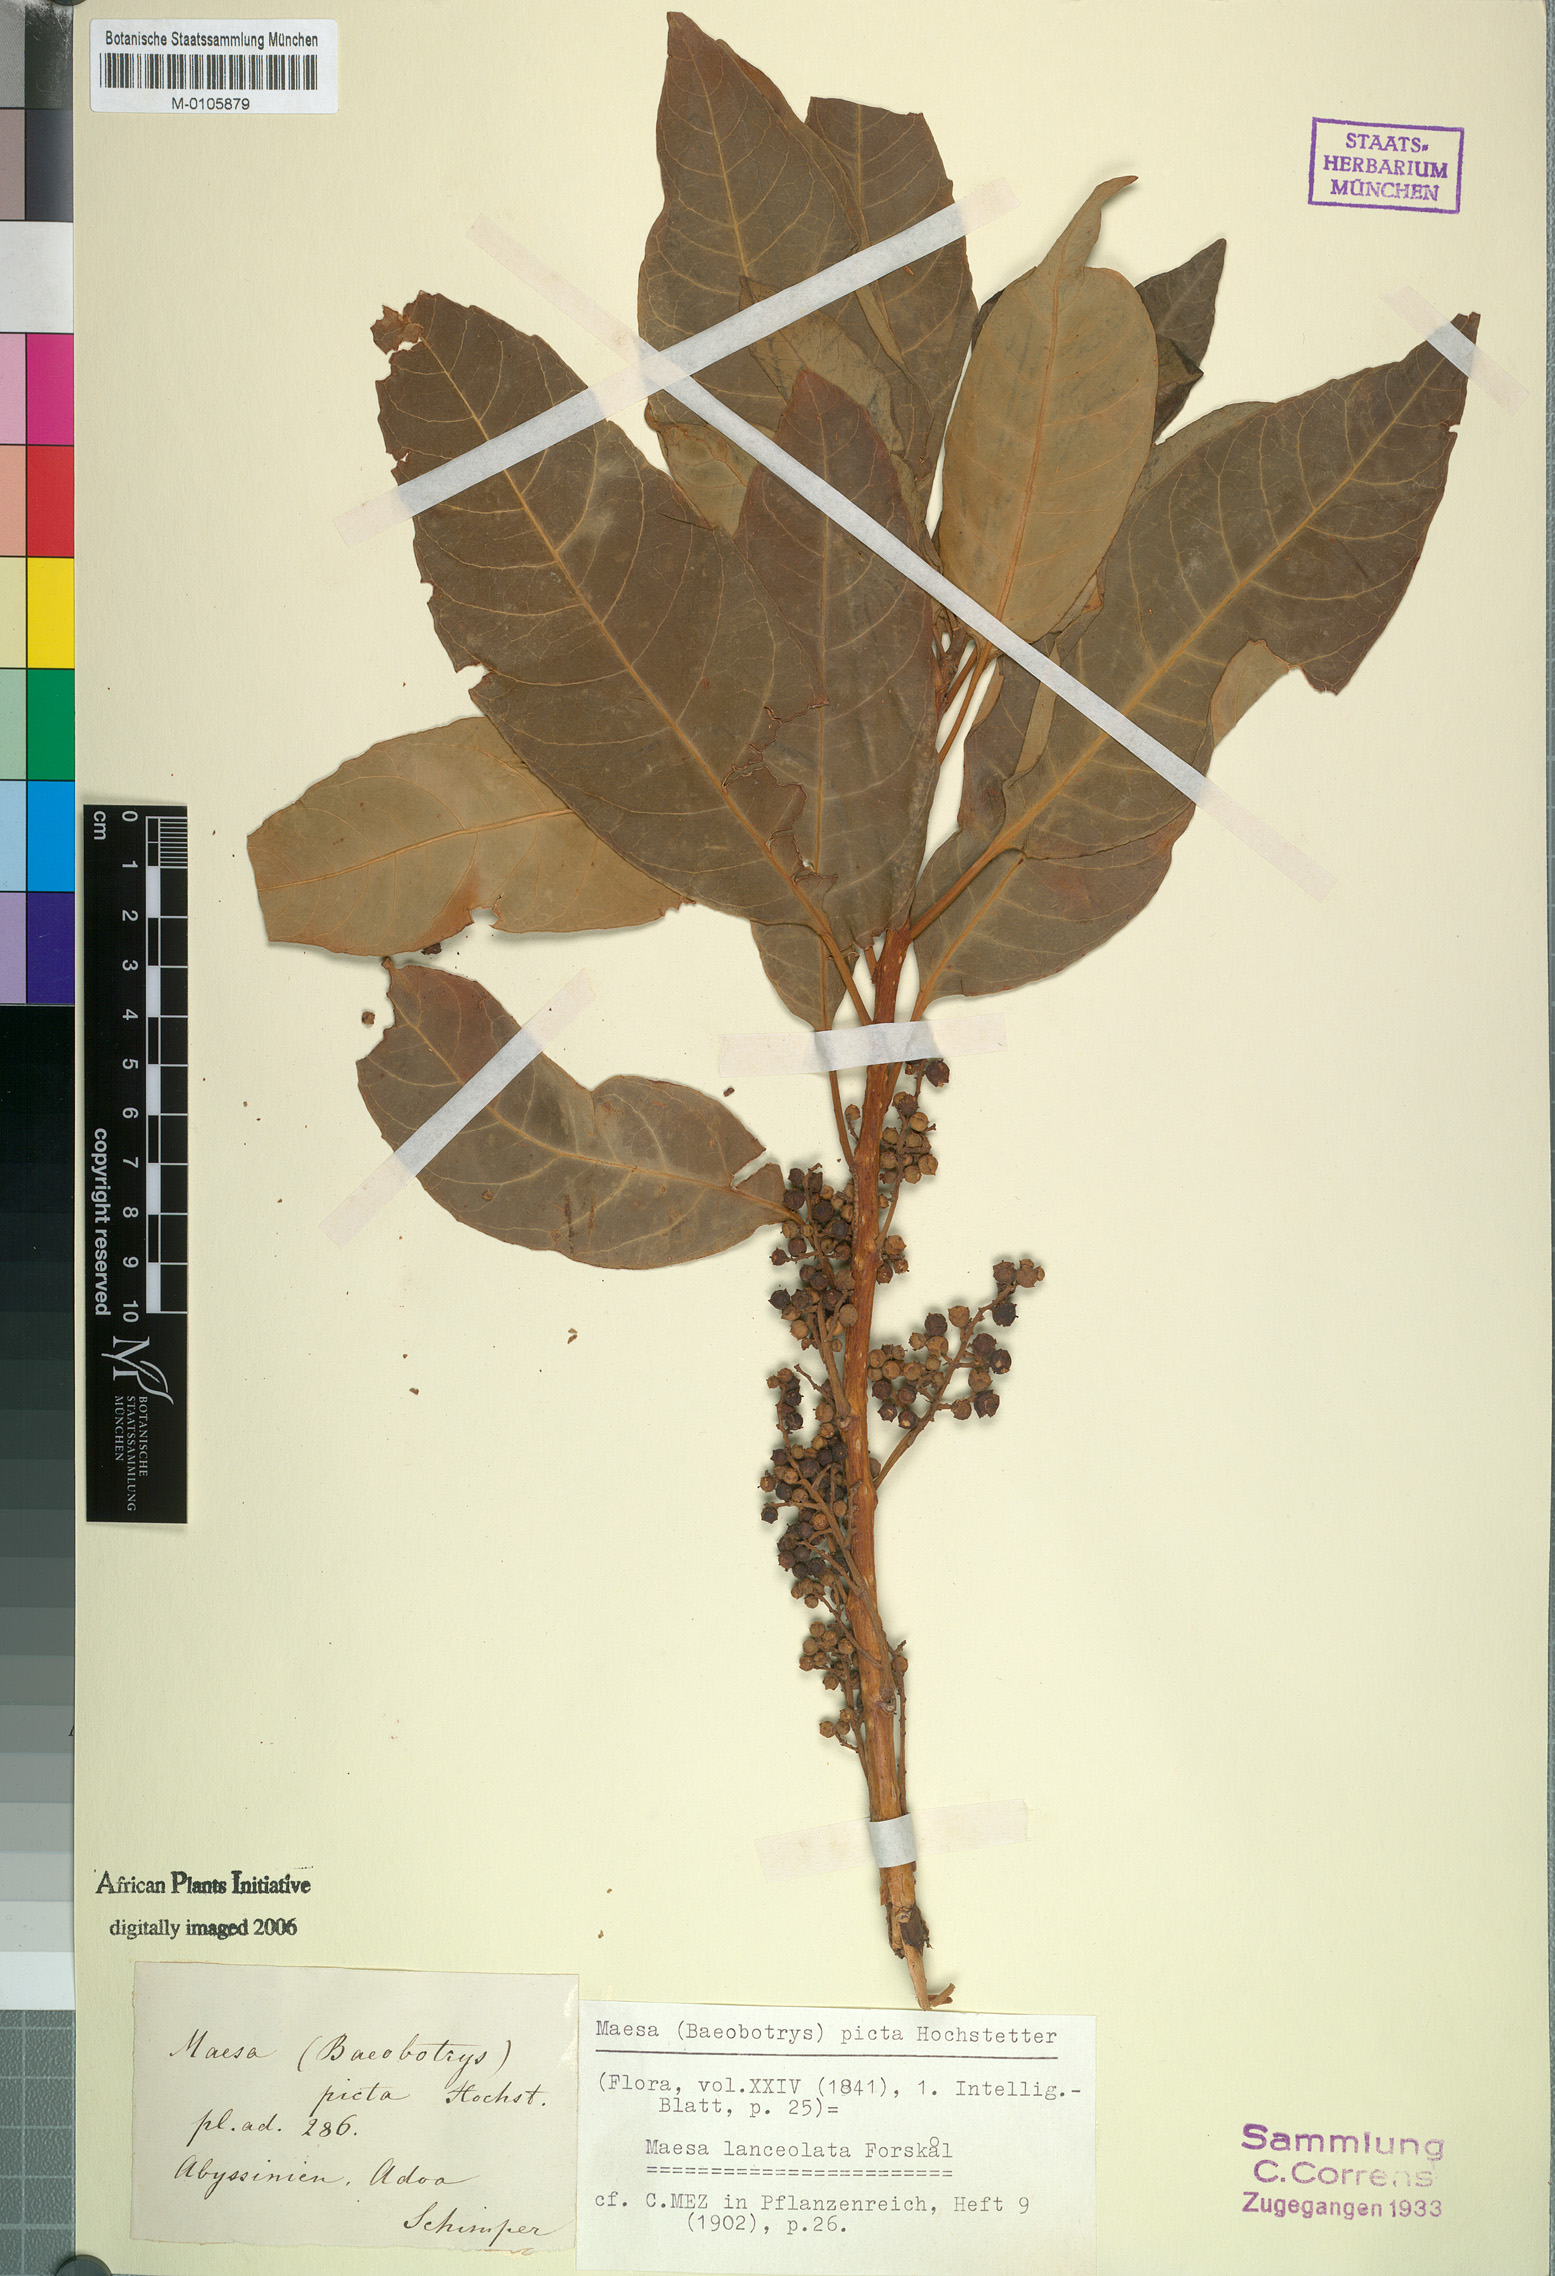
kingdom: Plantae
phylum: Tracheophyta
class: Magnoliopsida
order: Ericales
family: Primulaceae
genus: Maesa
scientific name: Maesa lanceolata
